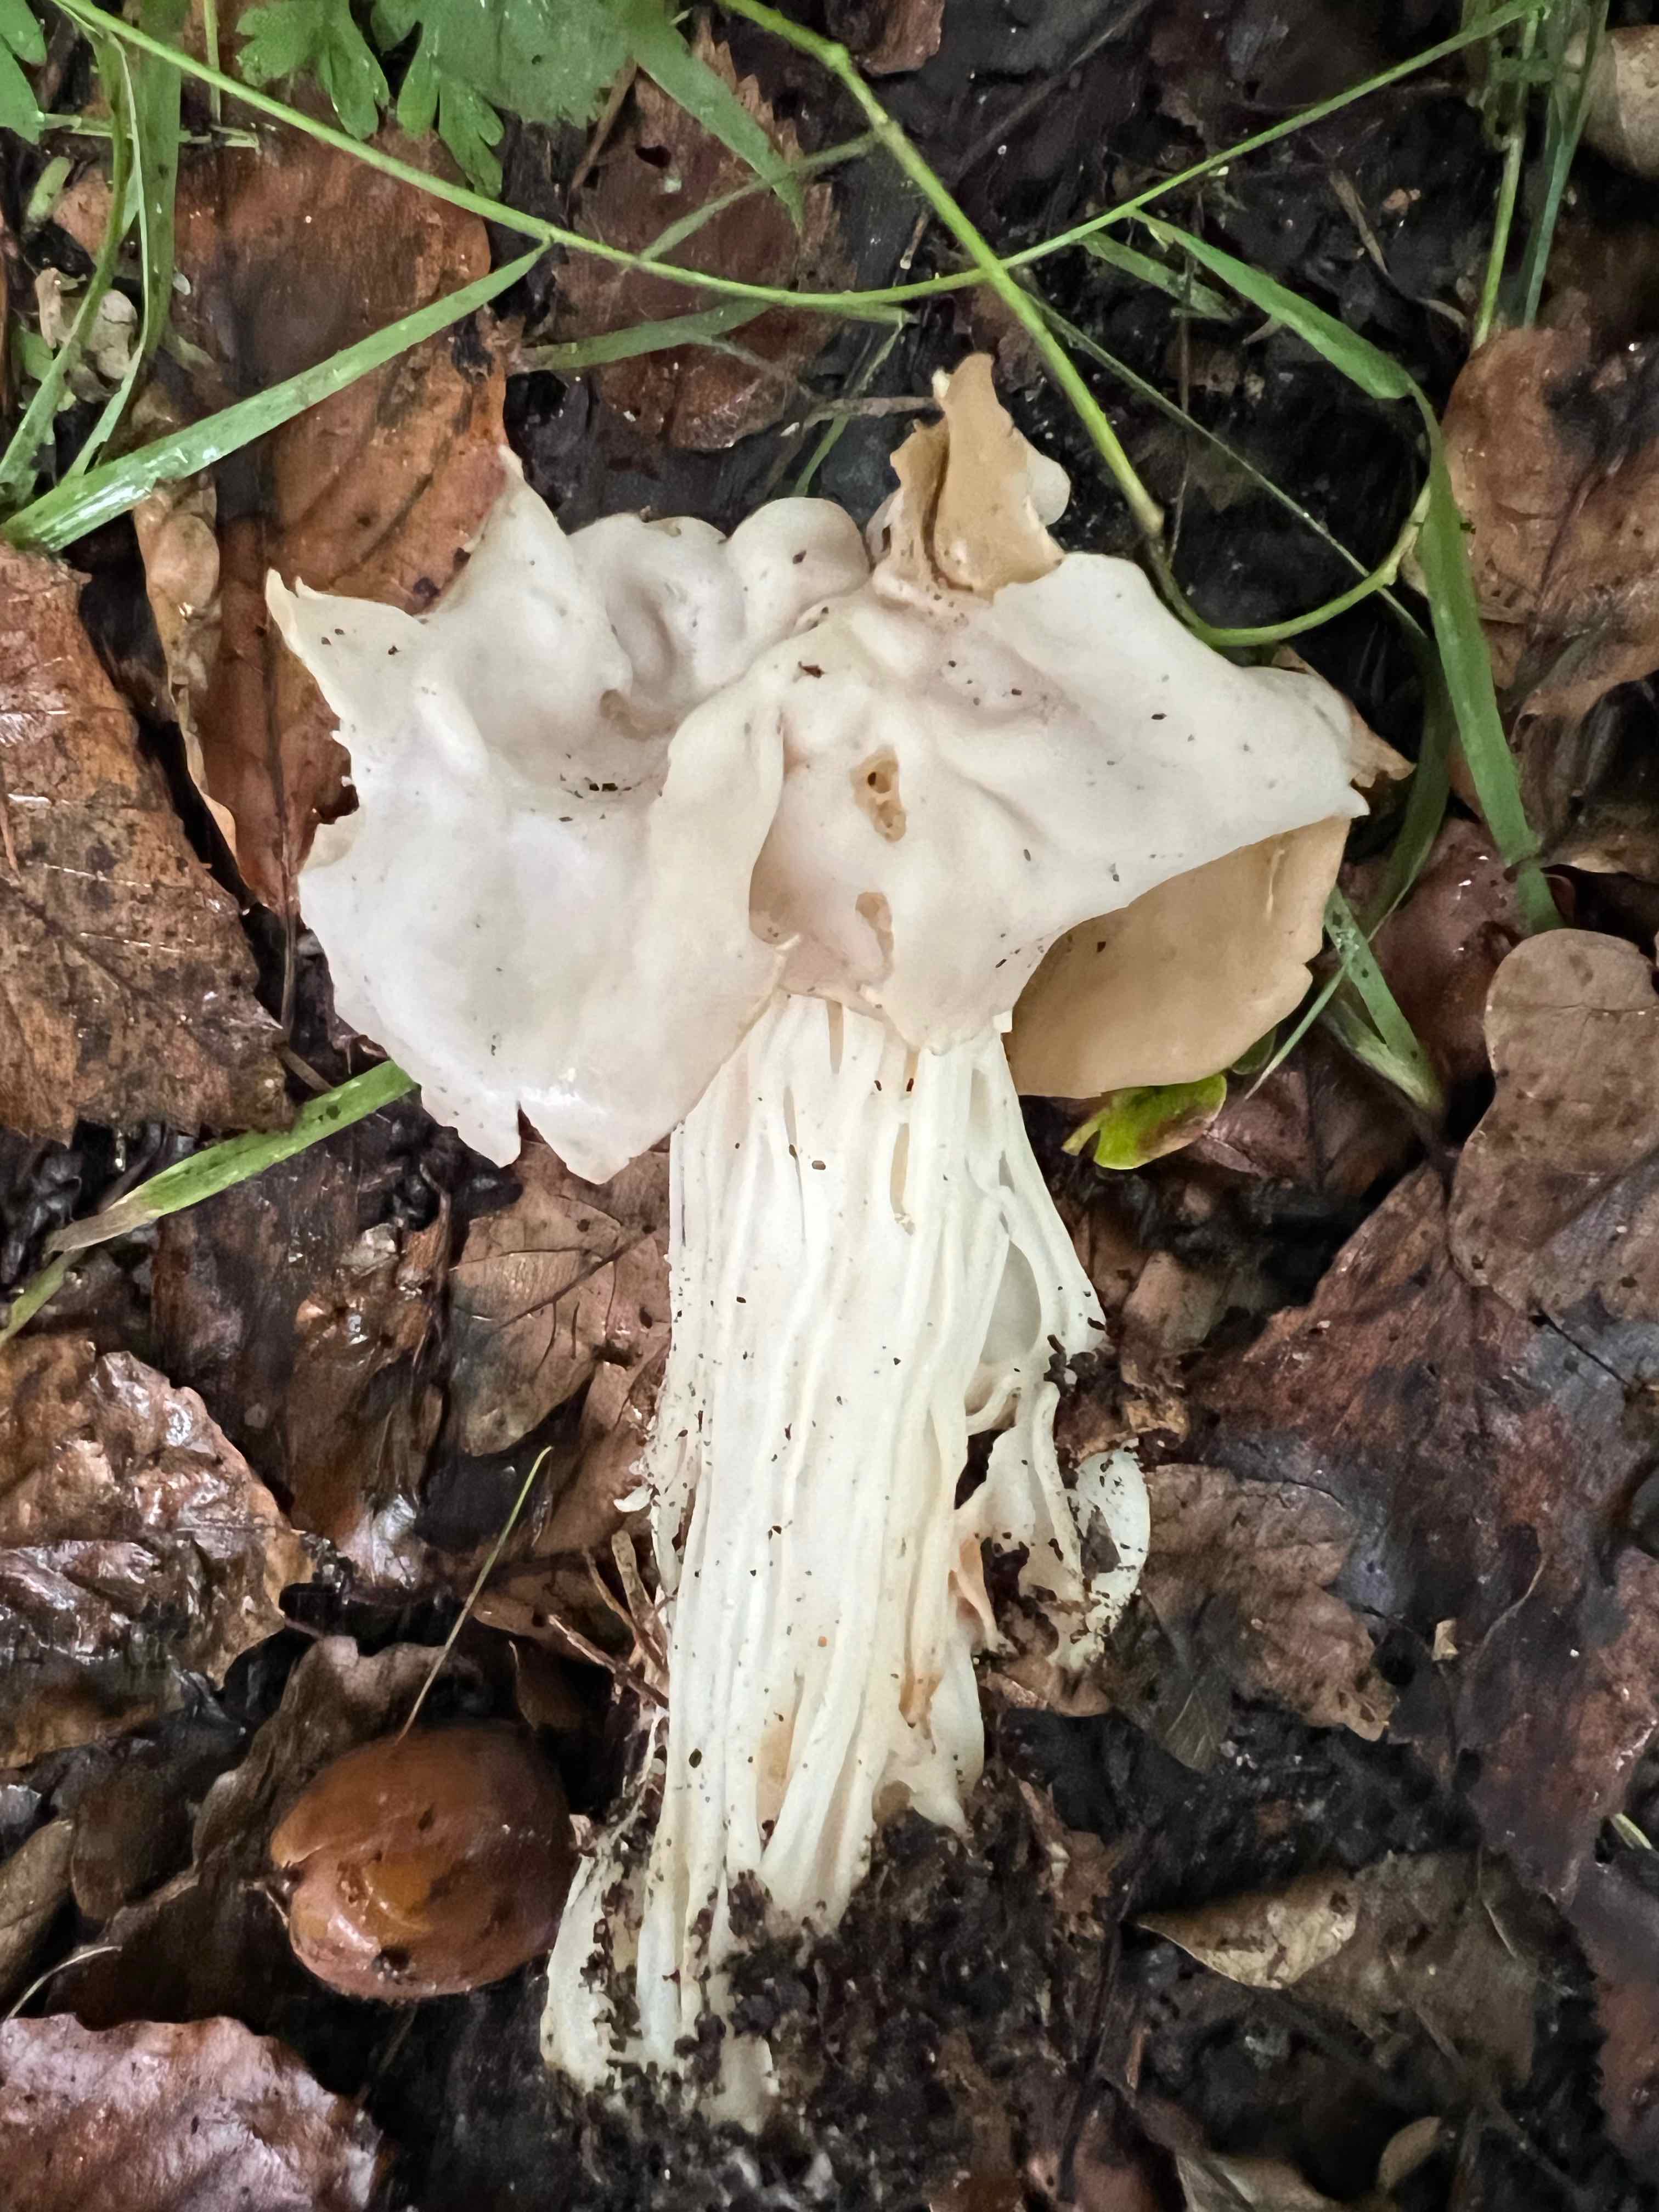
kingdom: Fungi
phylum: Ascomycota
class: Pezizomycetes
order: Pezizales
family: Helvellaceae
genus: Helvella
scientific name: Helvella crispa
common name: kruset foldhat
